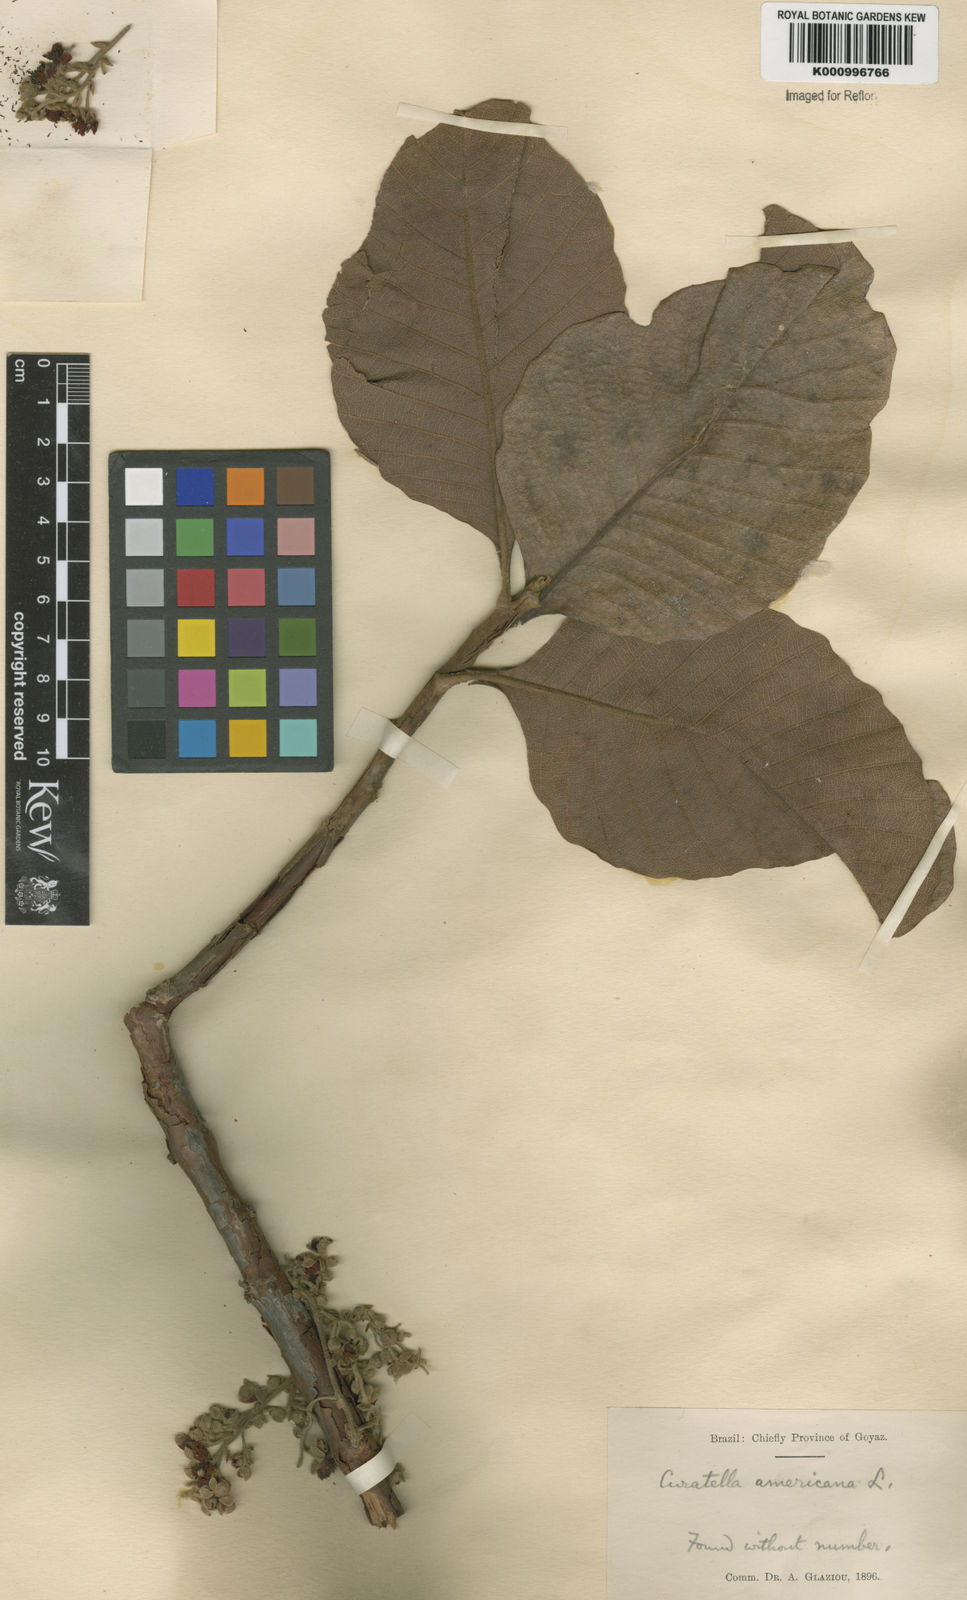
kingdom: Plantae
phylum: Tracheophyta
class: Magnoliopsida
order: Dilleniales
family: Dilleniaceae
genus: Curatella
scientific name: Curatella americana
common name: Sandpaper tree
